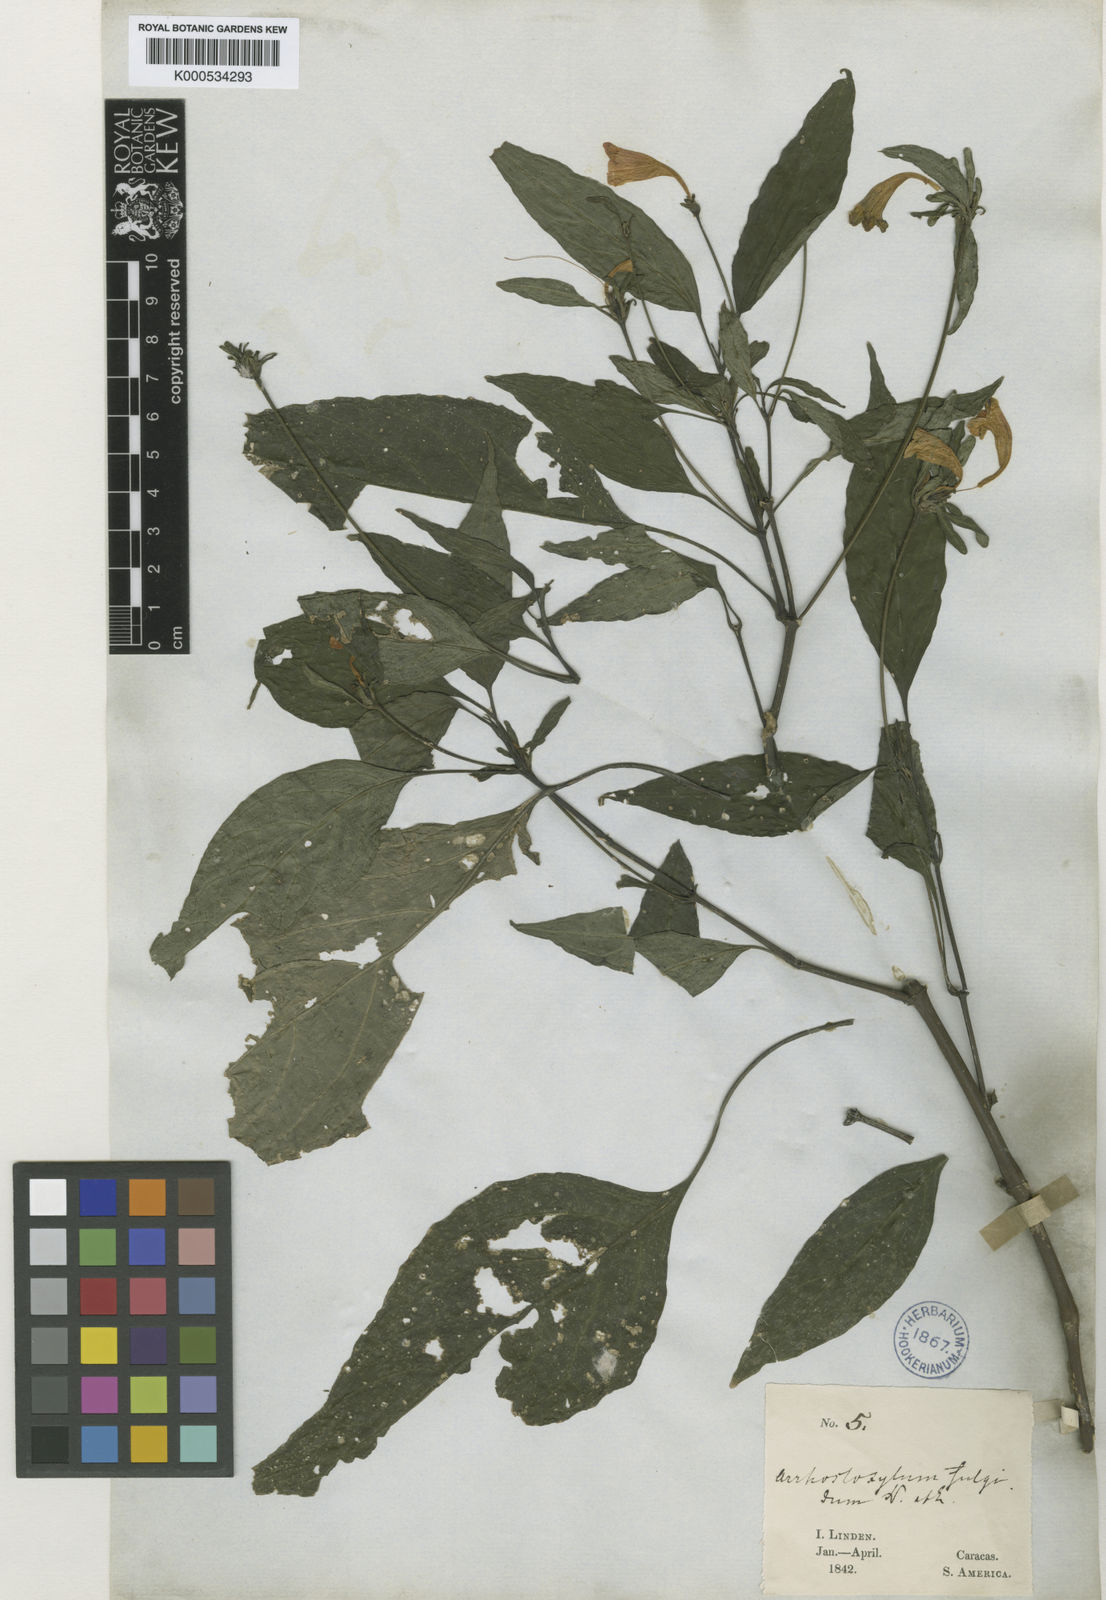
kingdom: Plantae
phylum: Tracheophyta
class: Magnoliopsida
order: Lamiales
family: Acanthaceae
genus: Ruellia
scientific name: Ruellia fulgida
